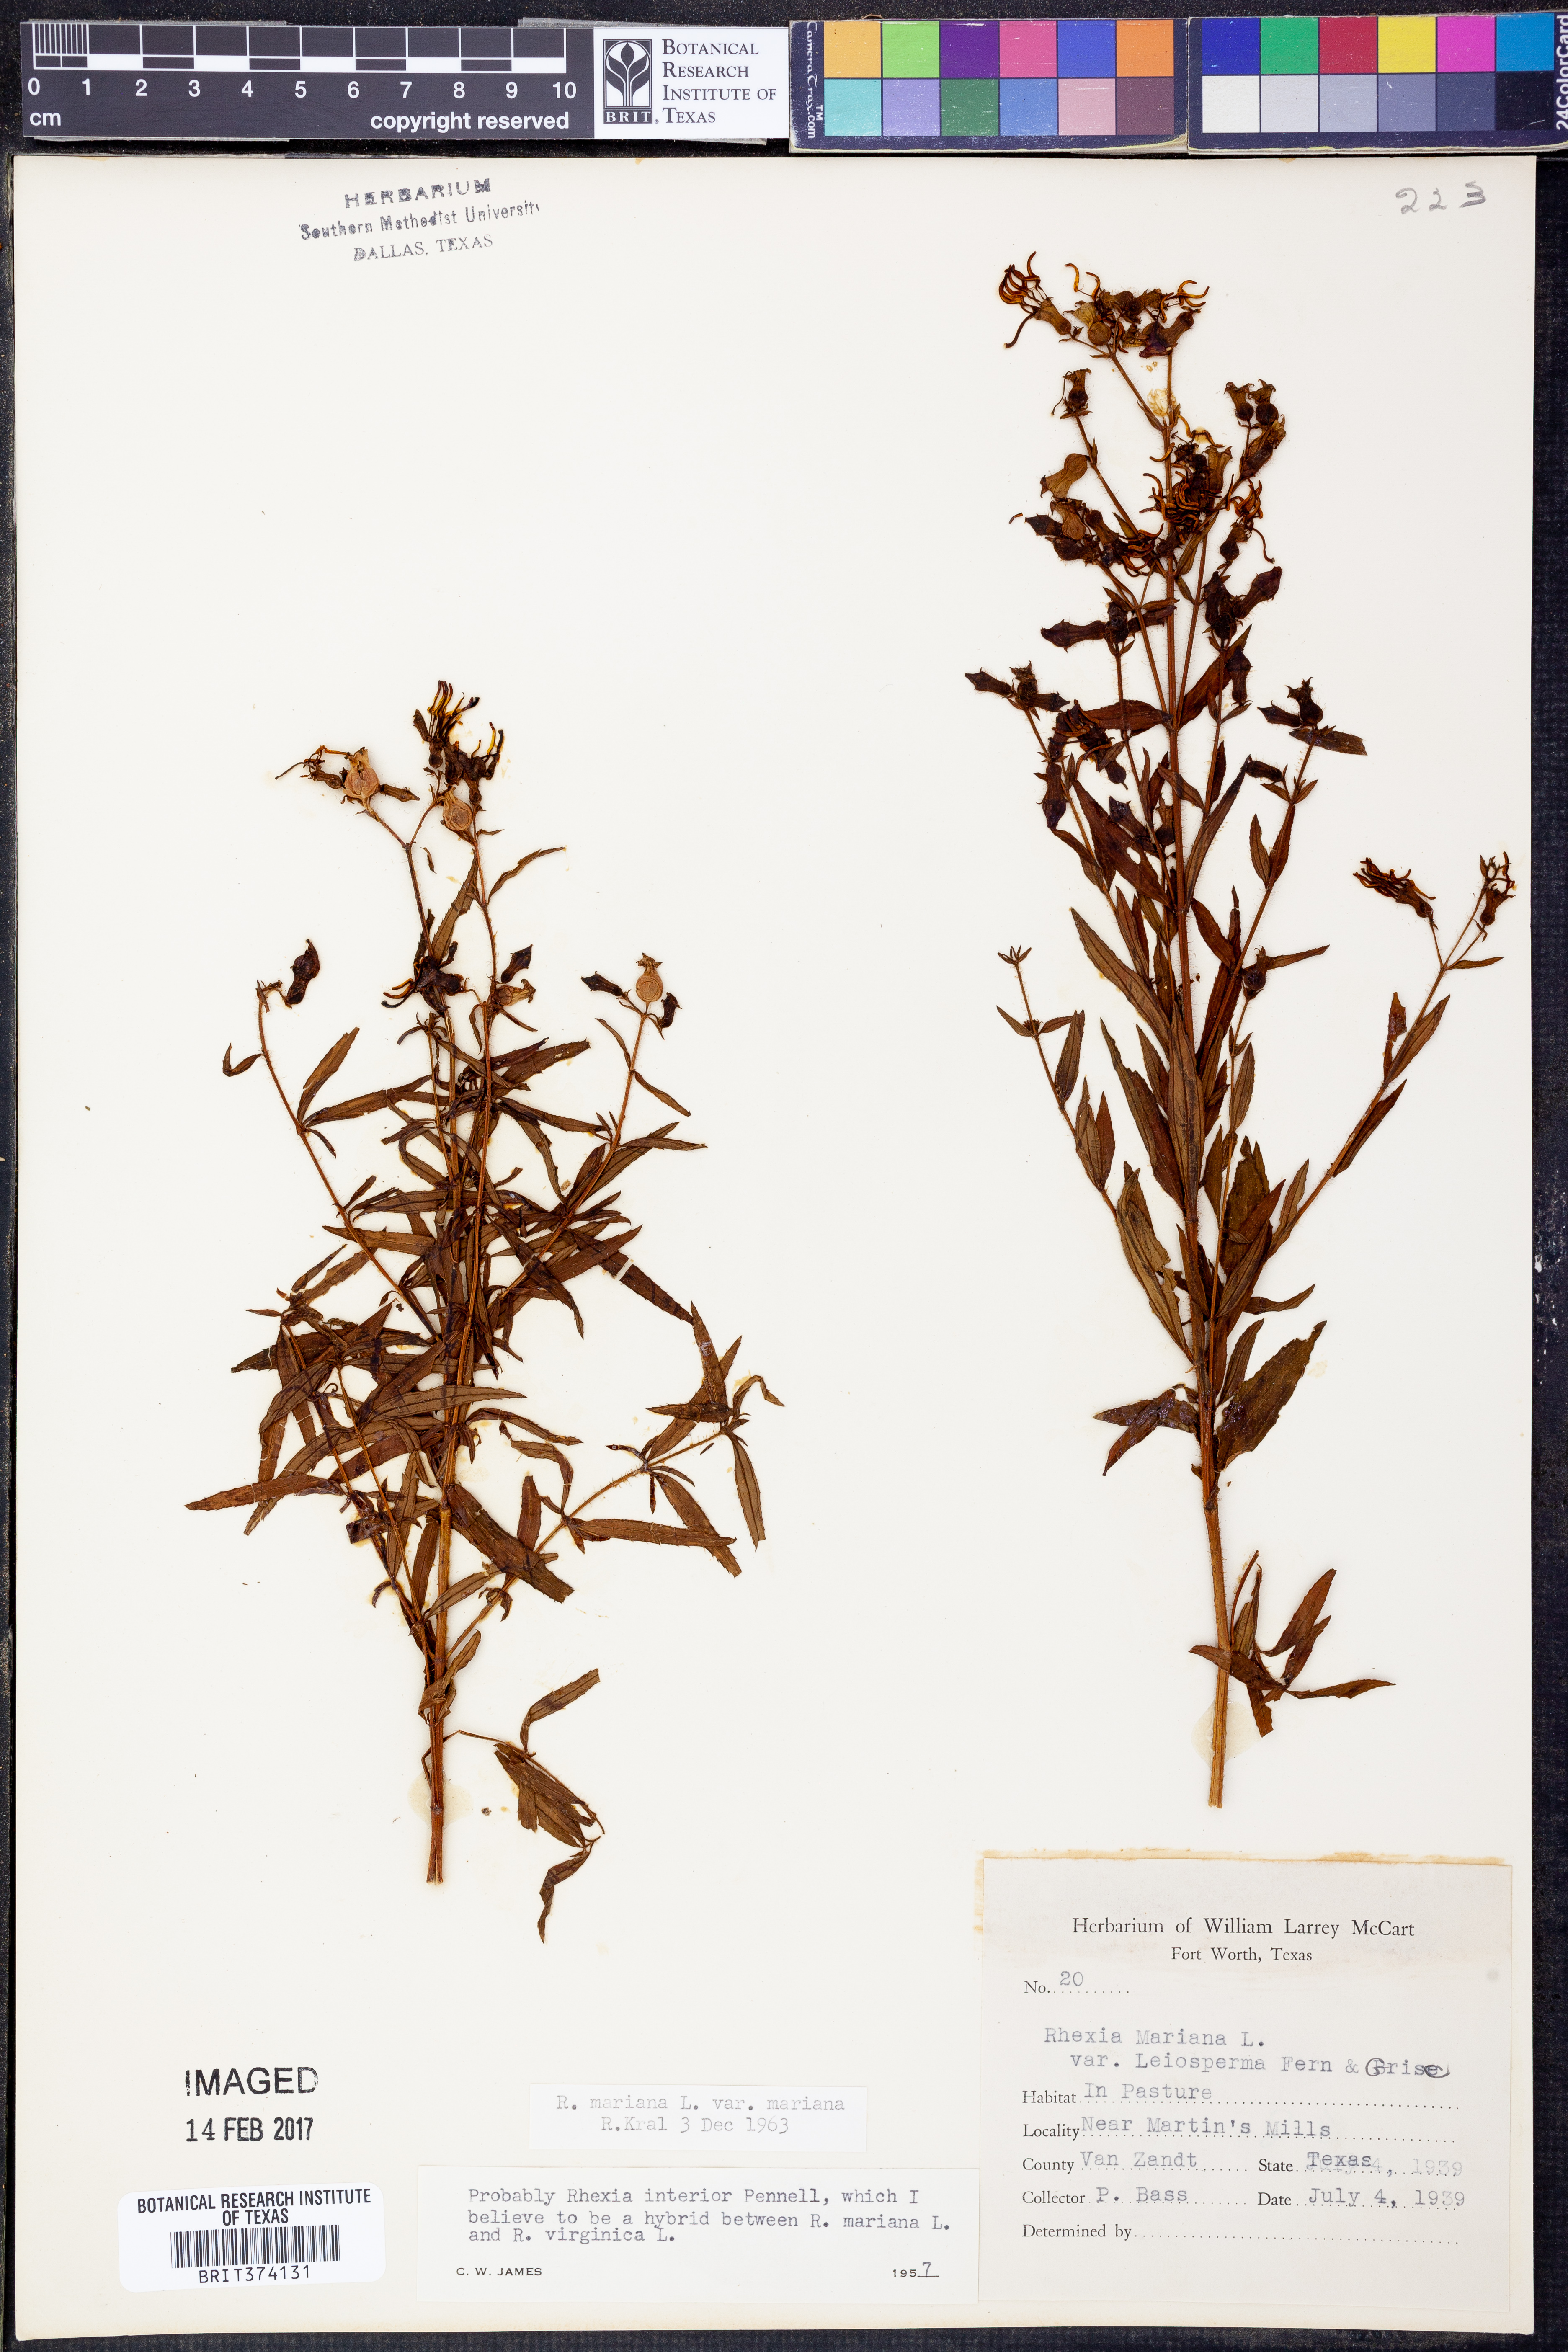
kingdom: Plantae
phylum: Tracheophyta
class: Magnoliopsida
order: Myrtales
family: Melastomataceae
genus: Rhexia
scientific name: Rhexia mariana
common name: Dull meadow-pitcher
